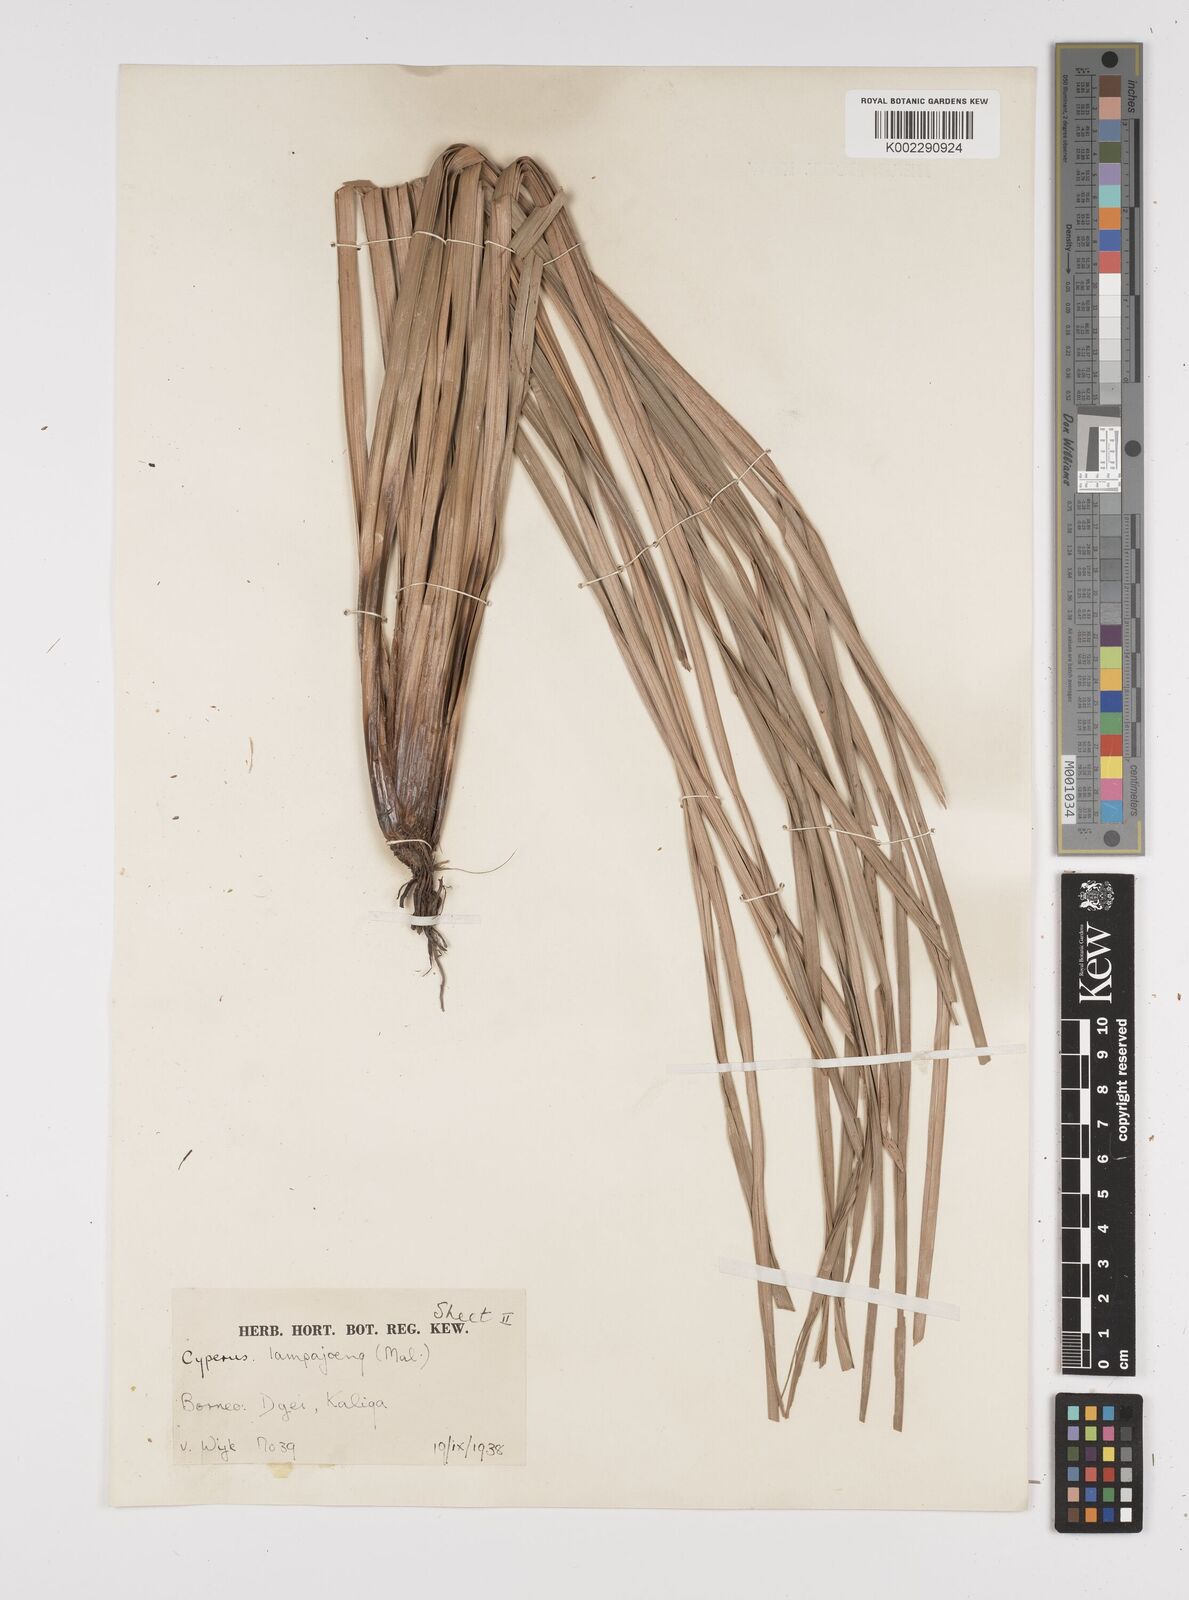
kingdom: Plantae
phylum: Tracheophyta
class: Liliopsida
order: Poales
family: Cyperaceae
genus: Fimbristylis
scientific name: Fimbristylis dura
